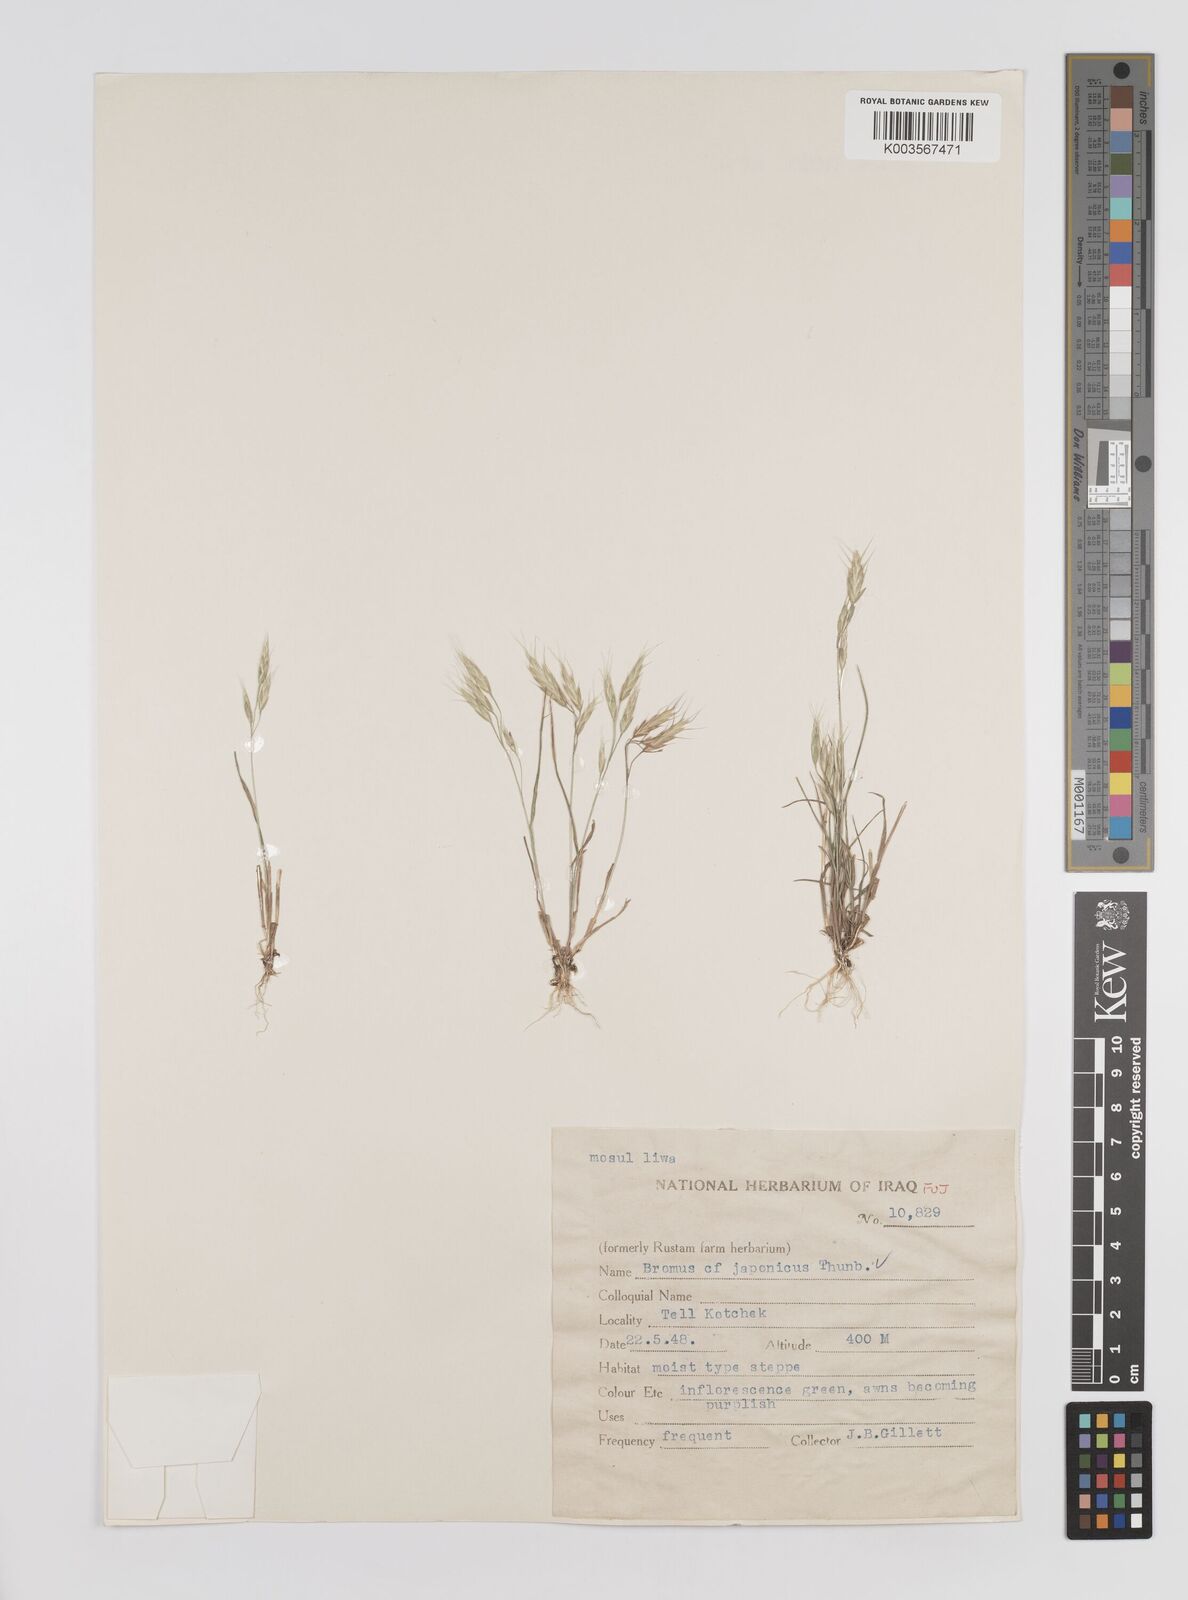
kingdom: Plantae
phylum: Tracheophyta
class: Liliopsida
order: Poales
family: Poaceae
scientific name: Poaceae
